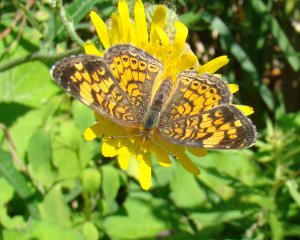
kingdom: Animalia
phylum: Arthropoda
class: Insecta
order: Lepidoptera
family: Nymphalidae
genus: Phyciodes
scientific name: Phyciodes tharos
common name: Northern Crescent
